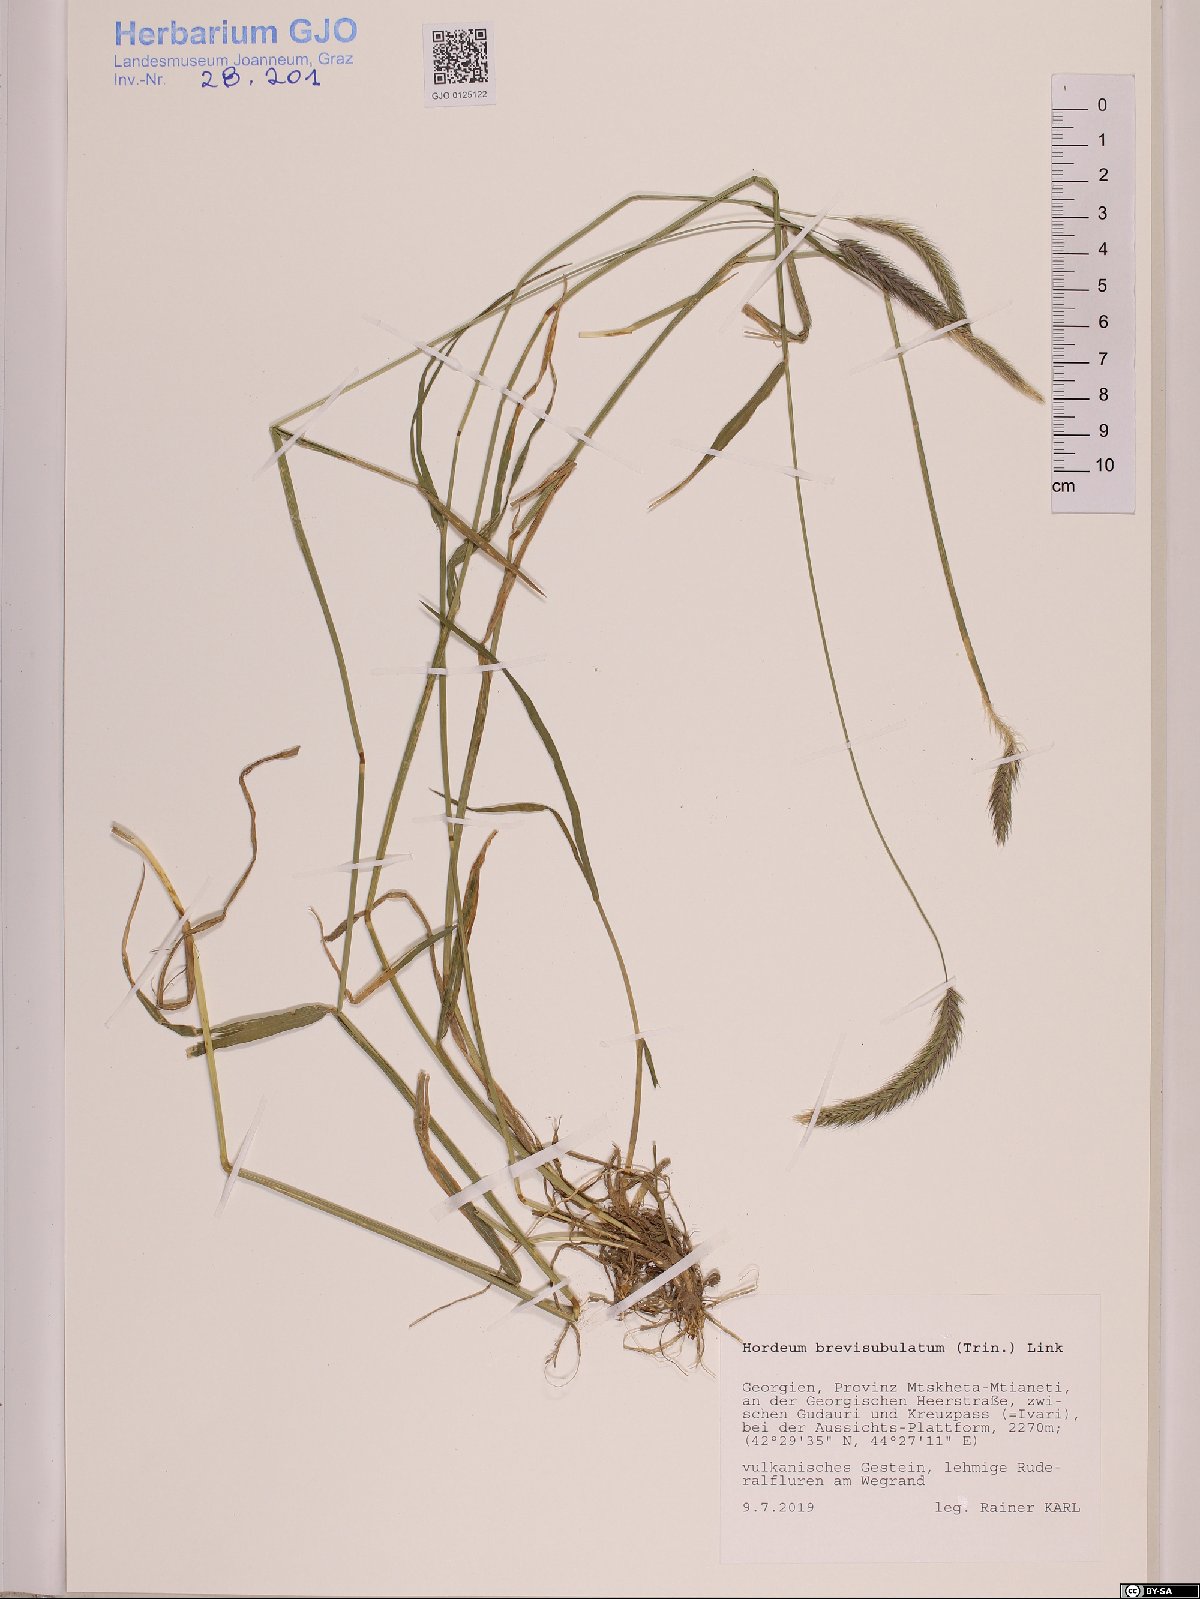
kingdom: Plantae
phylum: Tracheophyta
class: Liliopsida
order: Poales
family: Poaceae
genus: Hordeum
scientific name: Hordeum brevisubulatum
